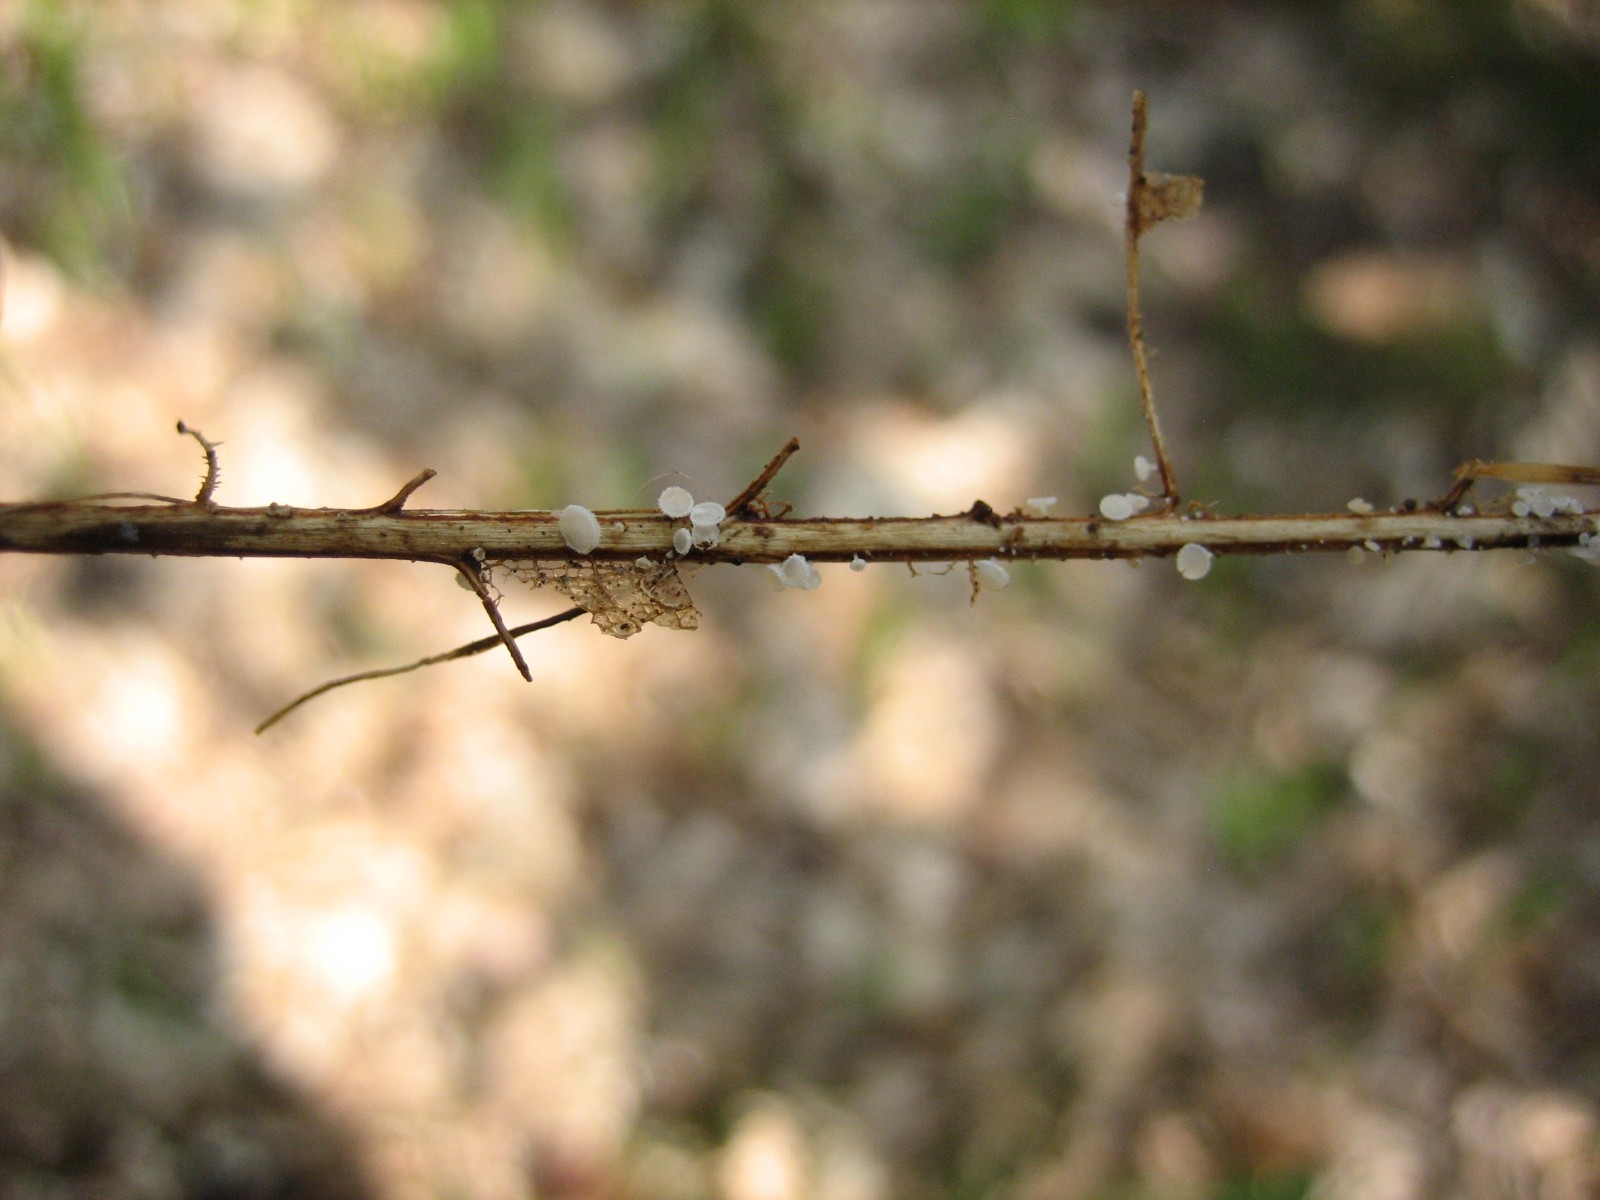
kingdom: Fungi
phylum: Ascomycota
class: Leotiomycetes
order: Helotiales
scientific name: Helotiales
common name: stilkskiveordenen
